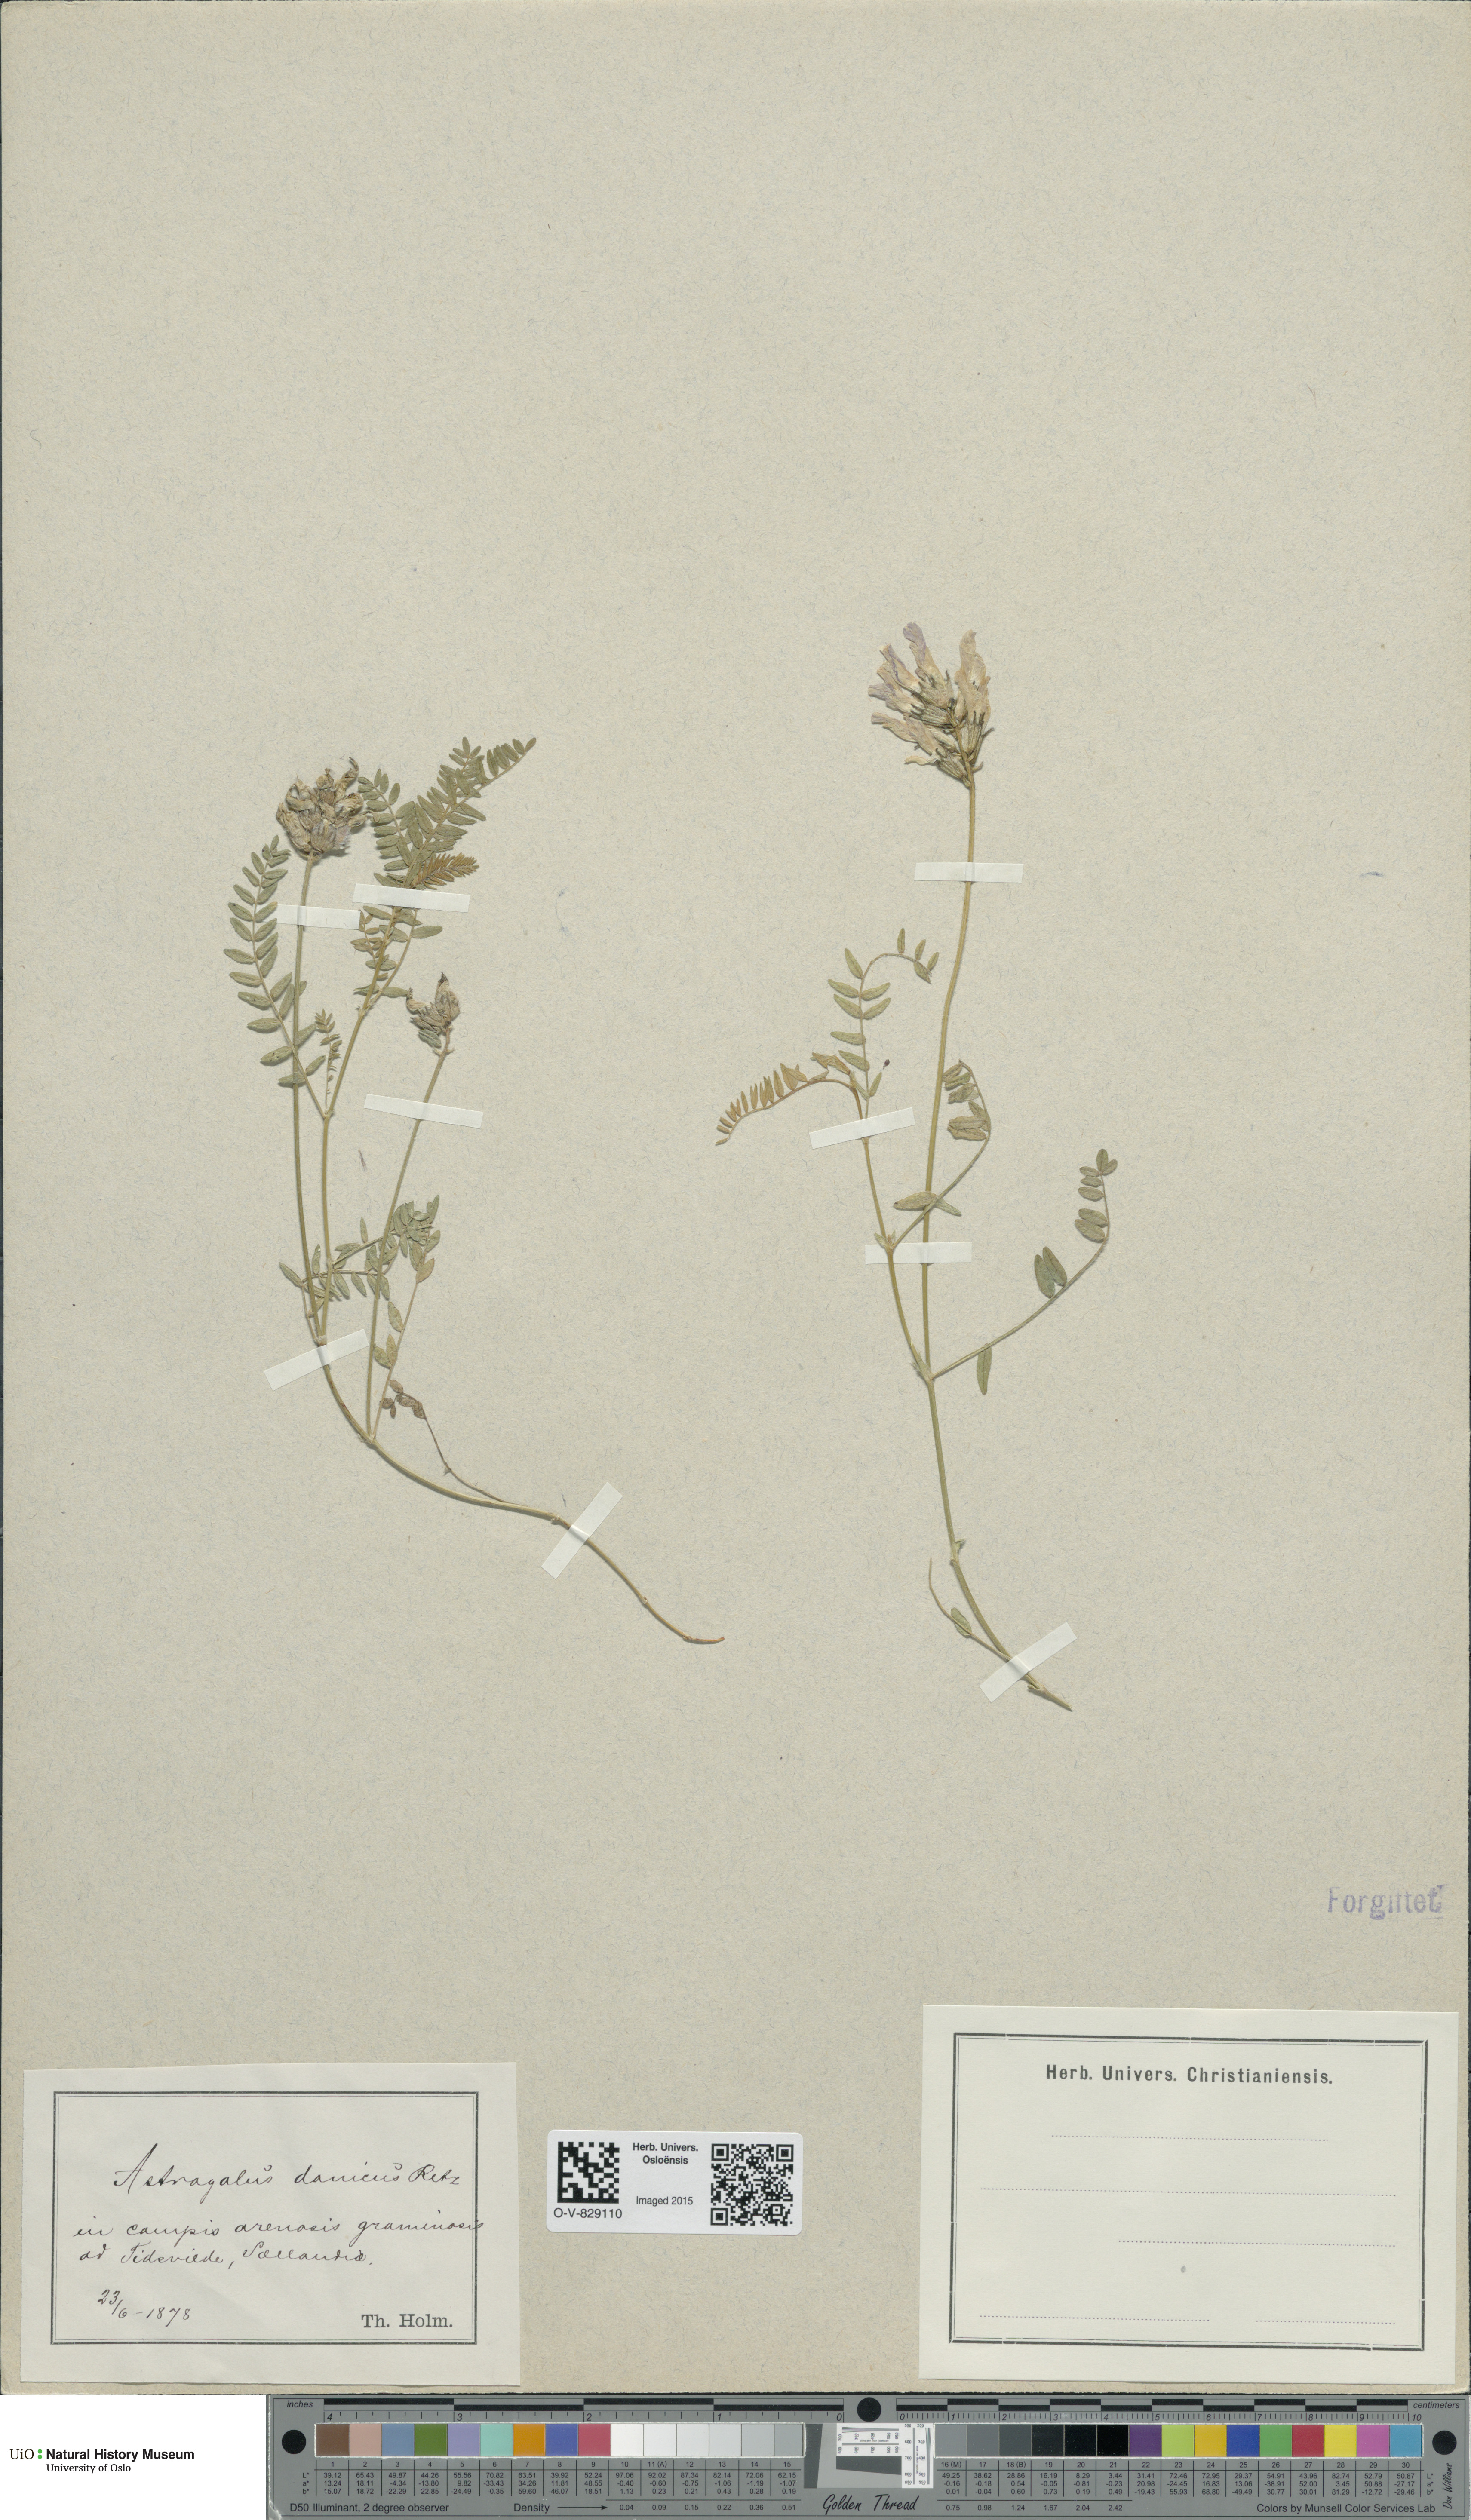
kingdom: Plantae
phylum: Tracheophyta
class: Magnoliopsida
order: Fabales
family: Fabaceae
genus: Astragalus
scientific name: Astragalus danicus
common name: Purple milk-vetch
